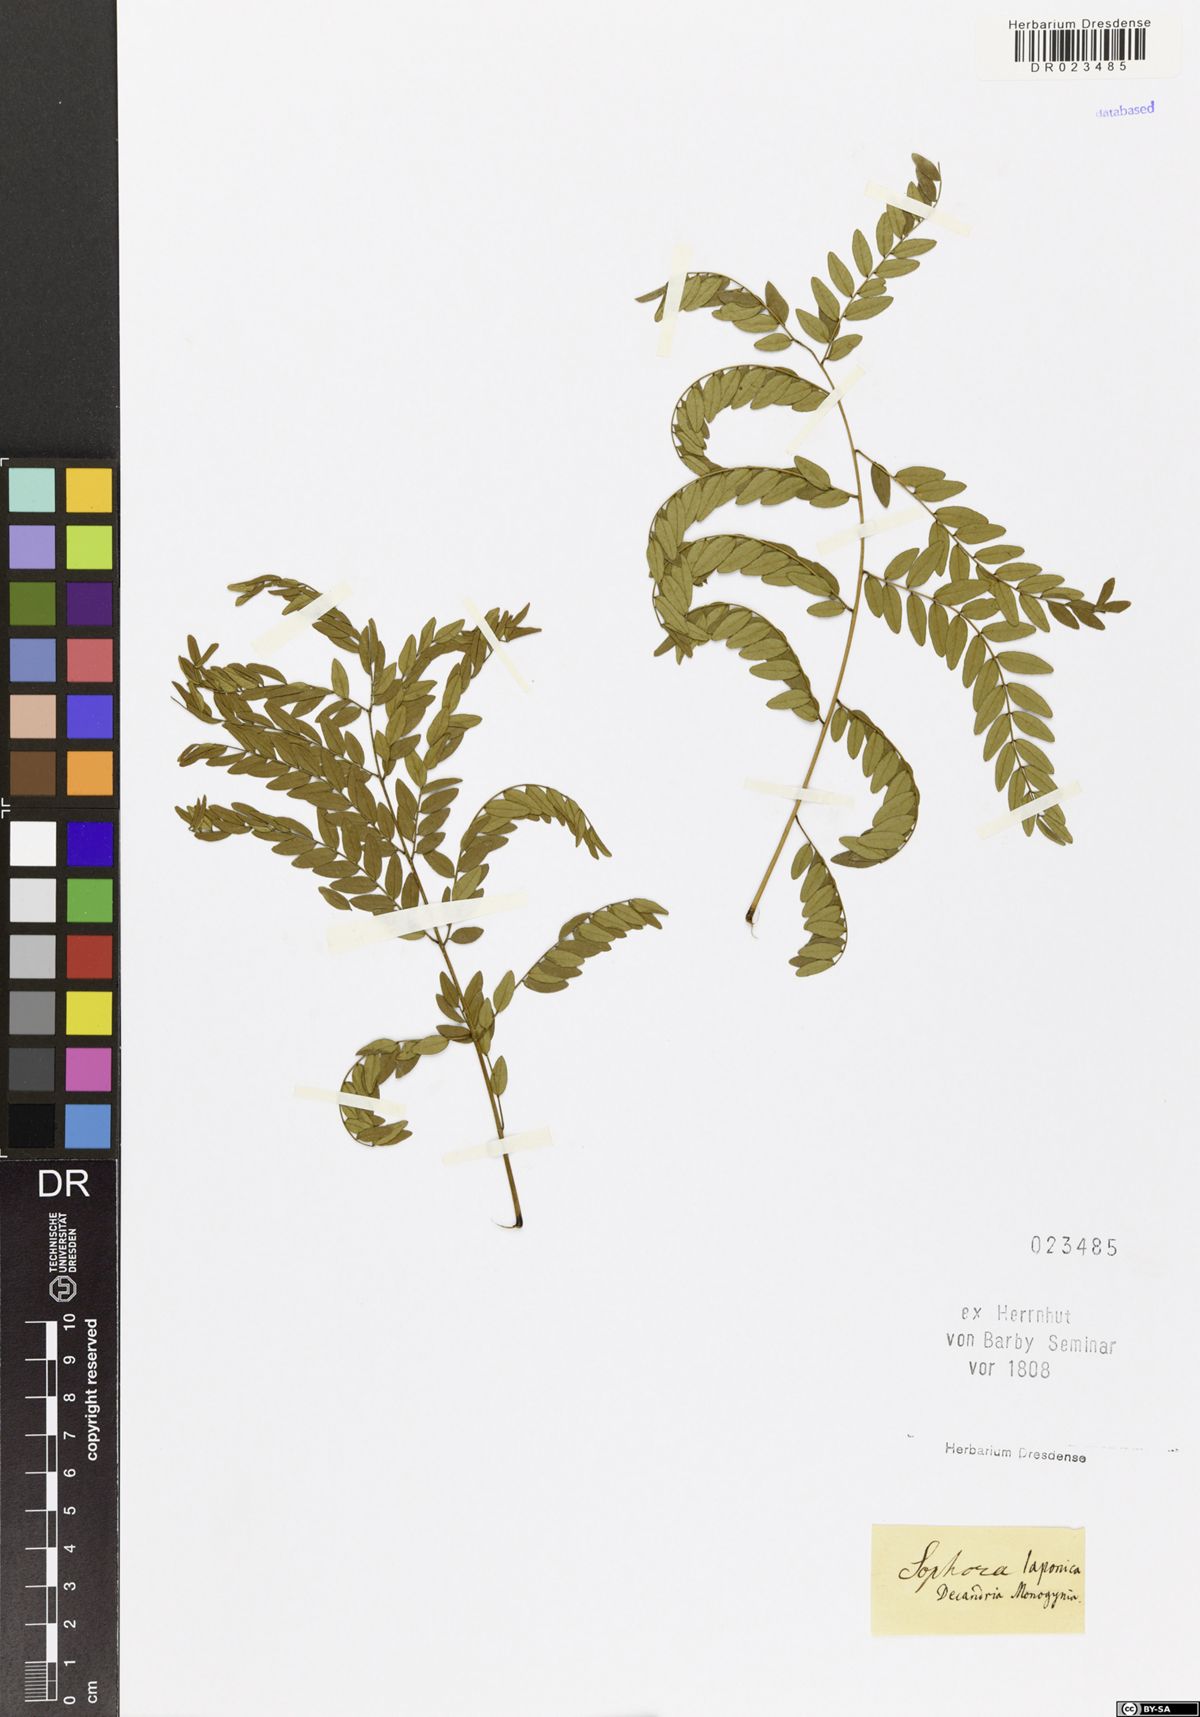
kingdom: Plantae
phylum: Tracheophyta
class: Magnoliopsida
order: Fabales
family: Fabaceae
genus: Styphnolobium
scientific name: Styphnolobium japonicum
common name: Chinese scholartree
